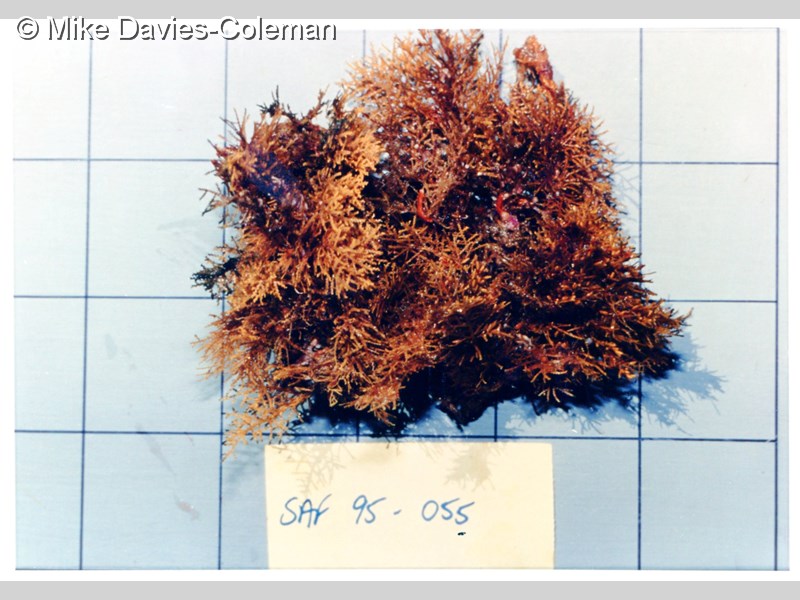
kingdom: Animalia
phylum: Cnidaria
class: Hydrozoa
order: Leptothecata
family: Sertularellidae
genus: Sertularella
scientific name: Sertularella arbuscula
